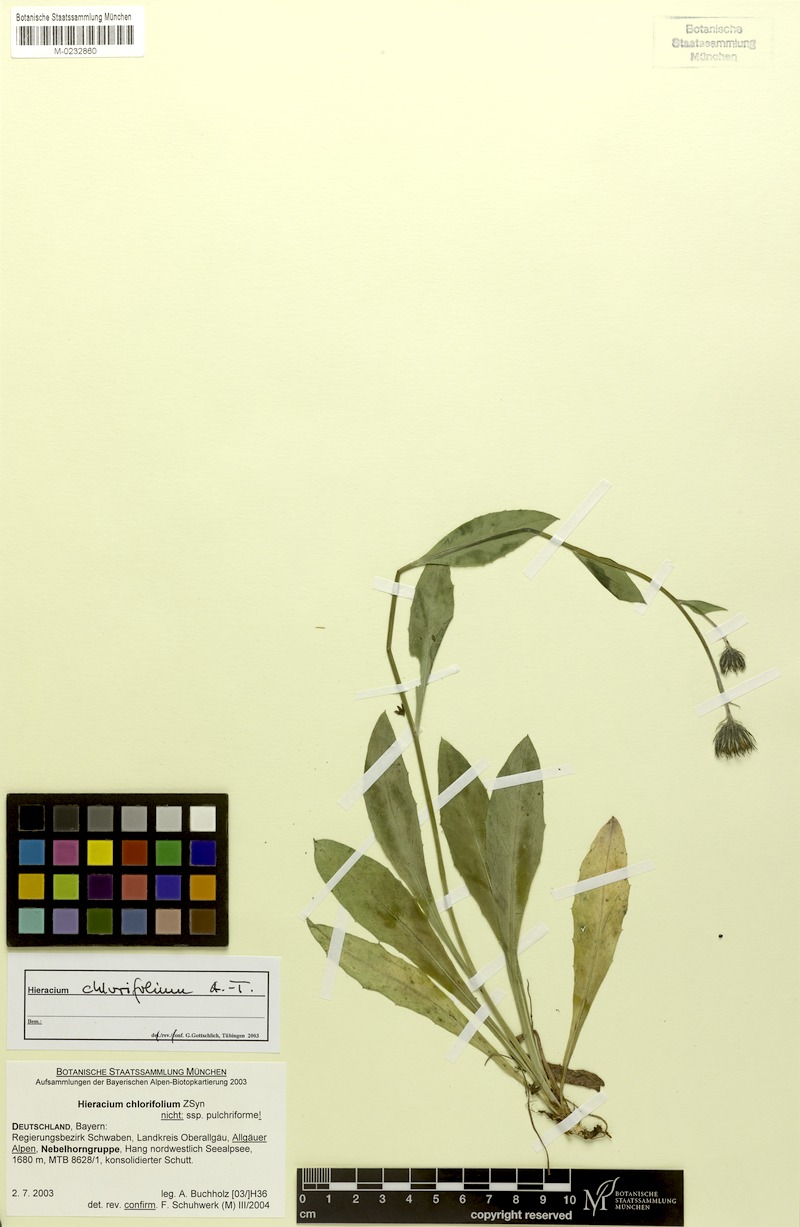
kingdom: Plantae
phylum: Tracheophyta
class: Magnoliopsida
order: Asterales
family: Asteraceae
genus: Hieracium
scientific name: Hieracium chlorifolium
